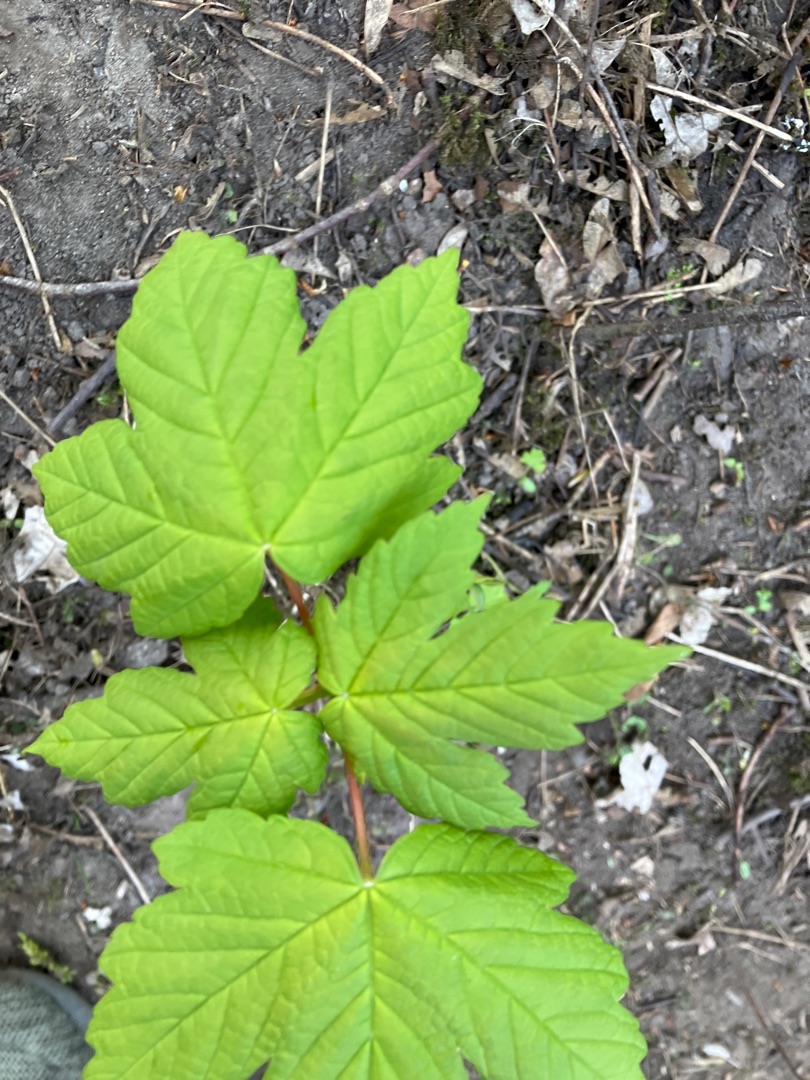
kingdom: Plantae
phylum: Tracheophyta
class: Magnoliopsida
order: Sapindales
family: Sapindaceae
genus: Acer
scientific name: Acer pseudoplatanus
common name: Ahorn
